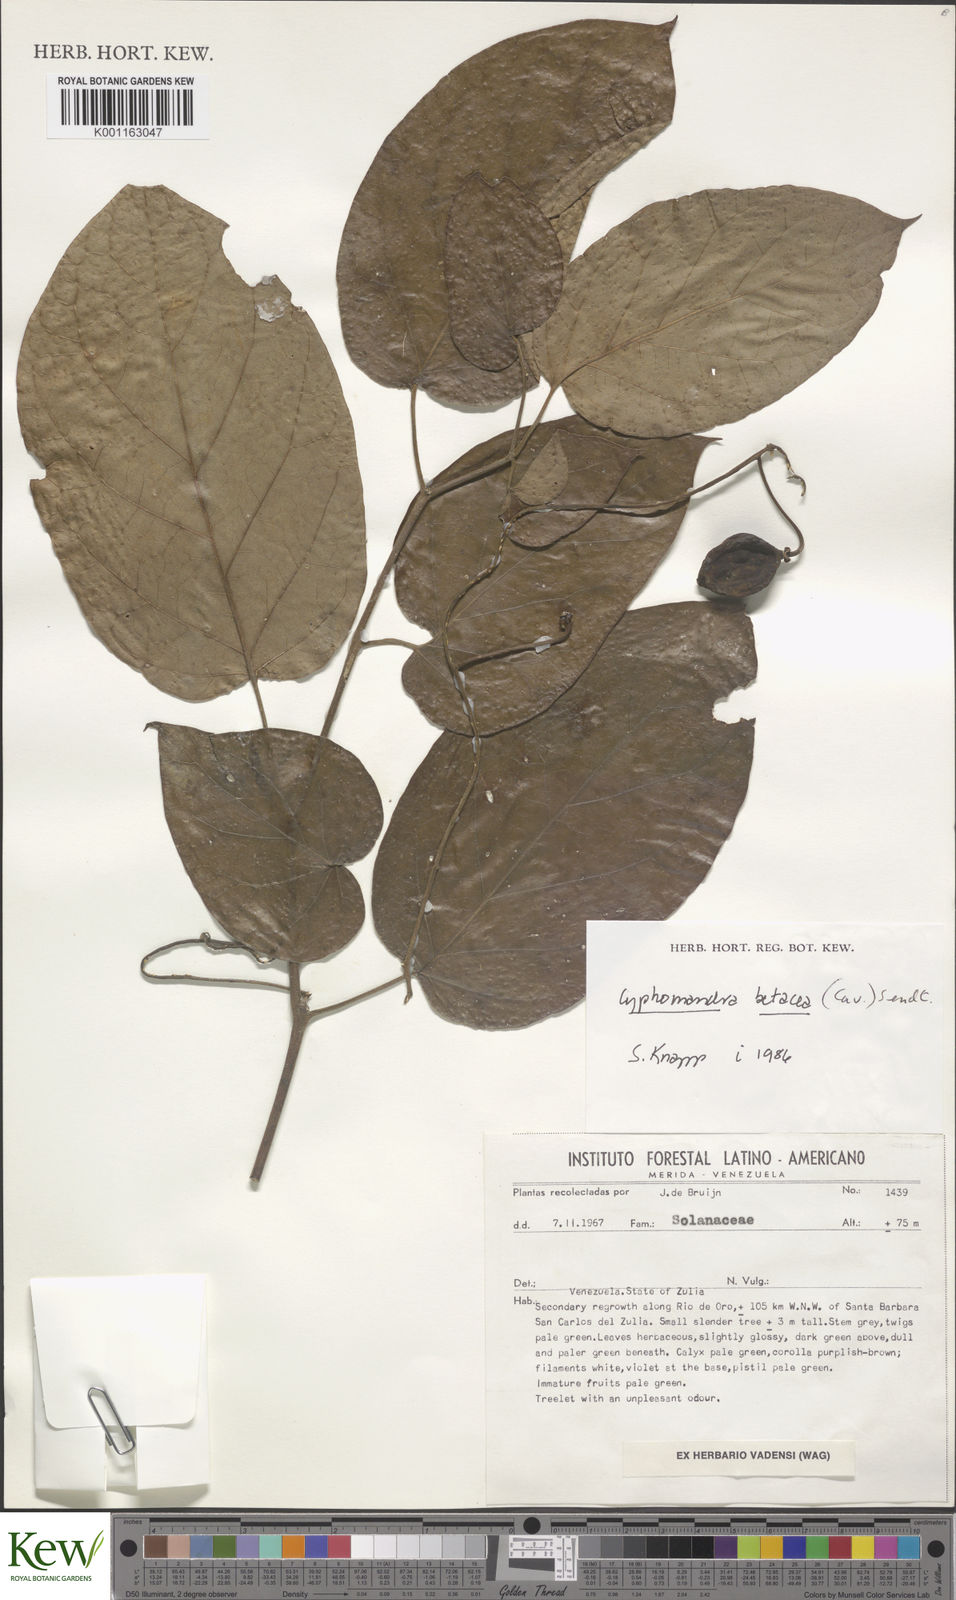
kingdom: Plantae
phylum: Tracheophyta
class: Magnoliopsida
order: Solanales
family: Solanaceae
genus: Solanum
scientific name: Solanum betaceum
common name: Tamarillo
